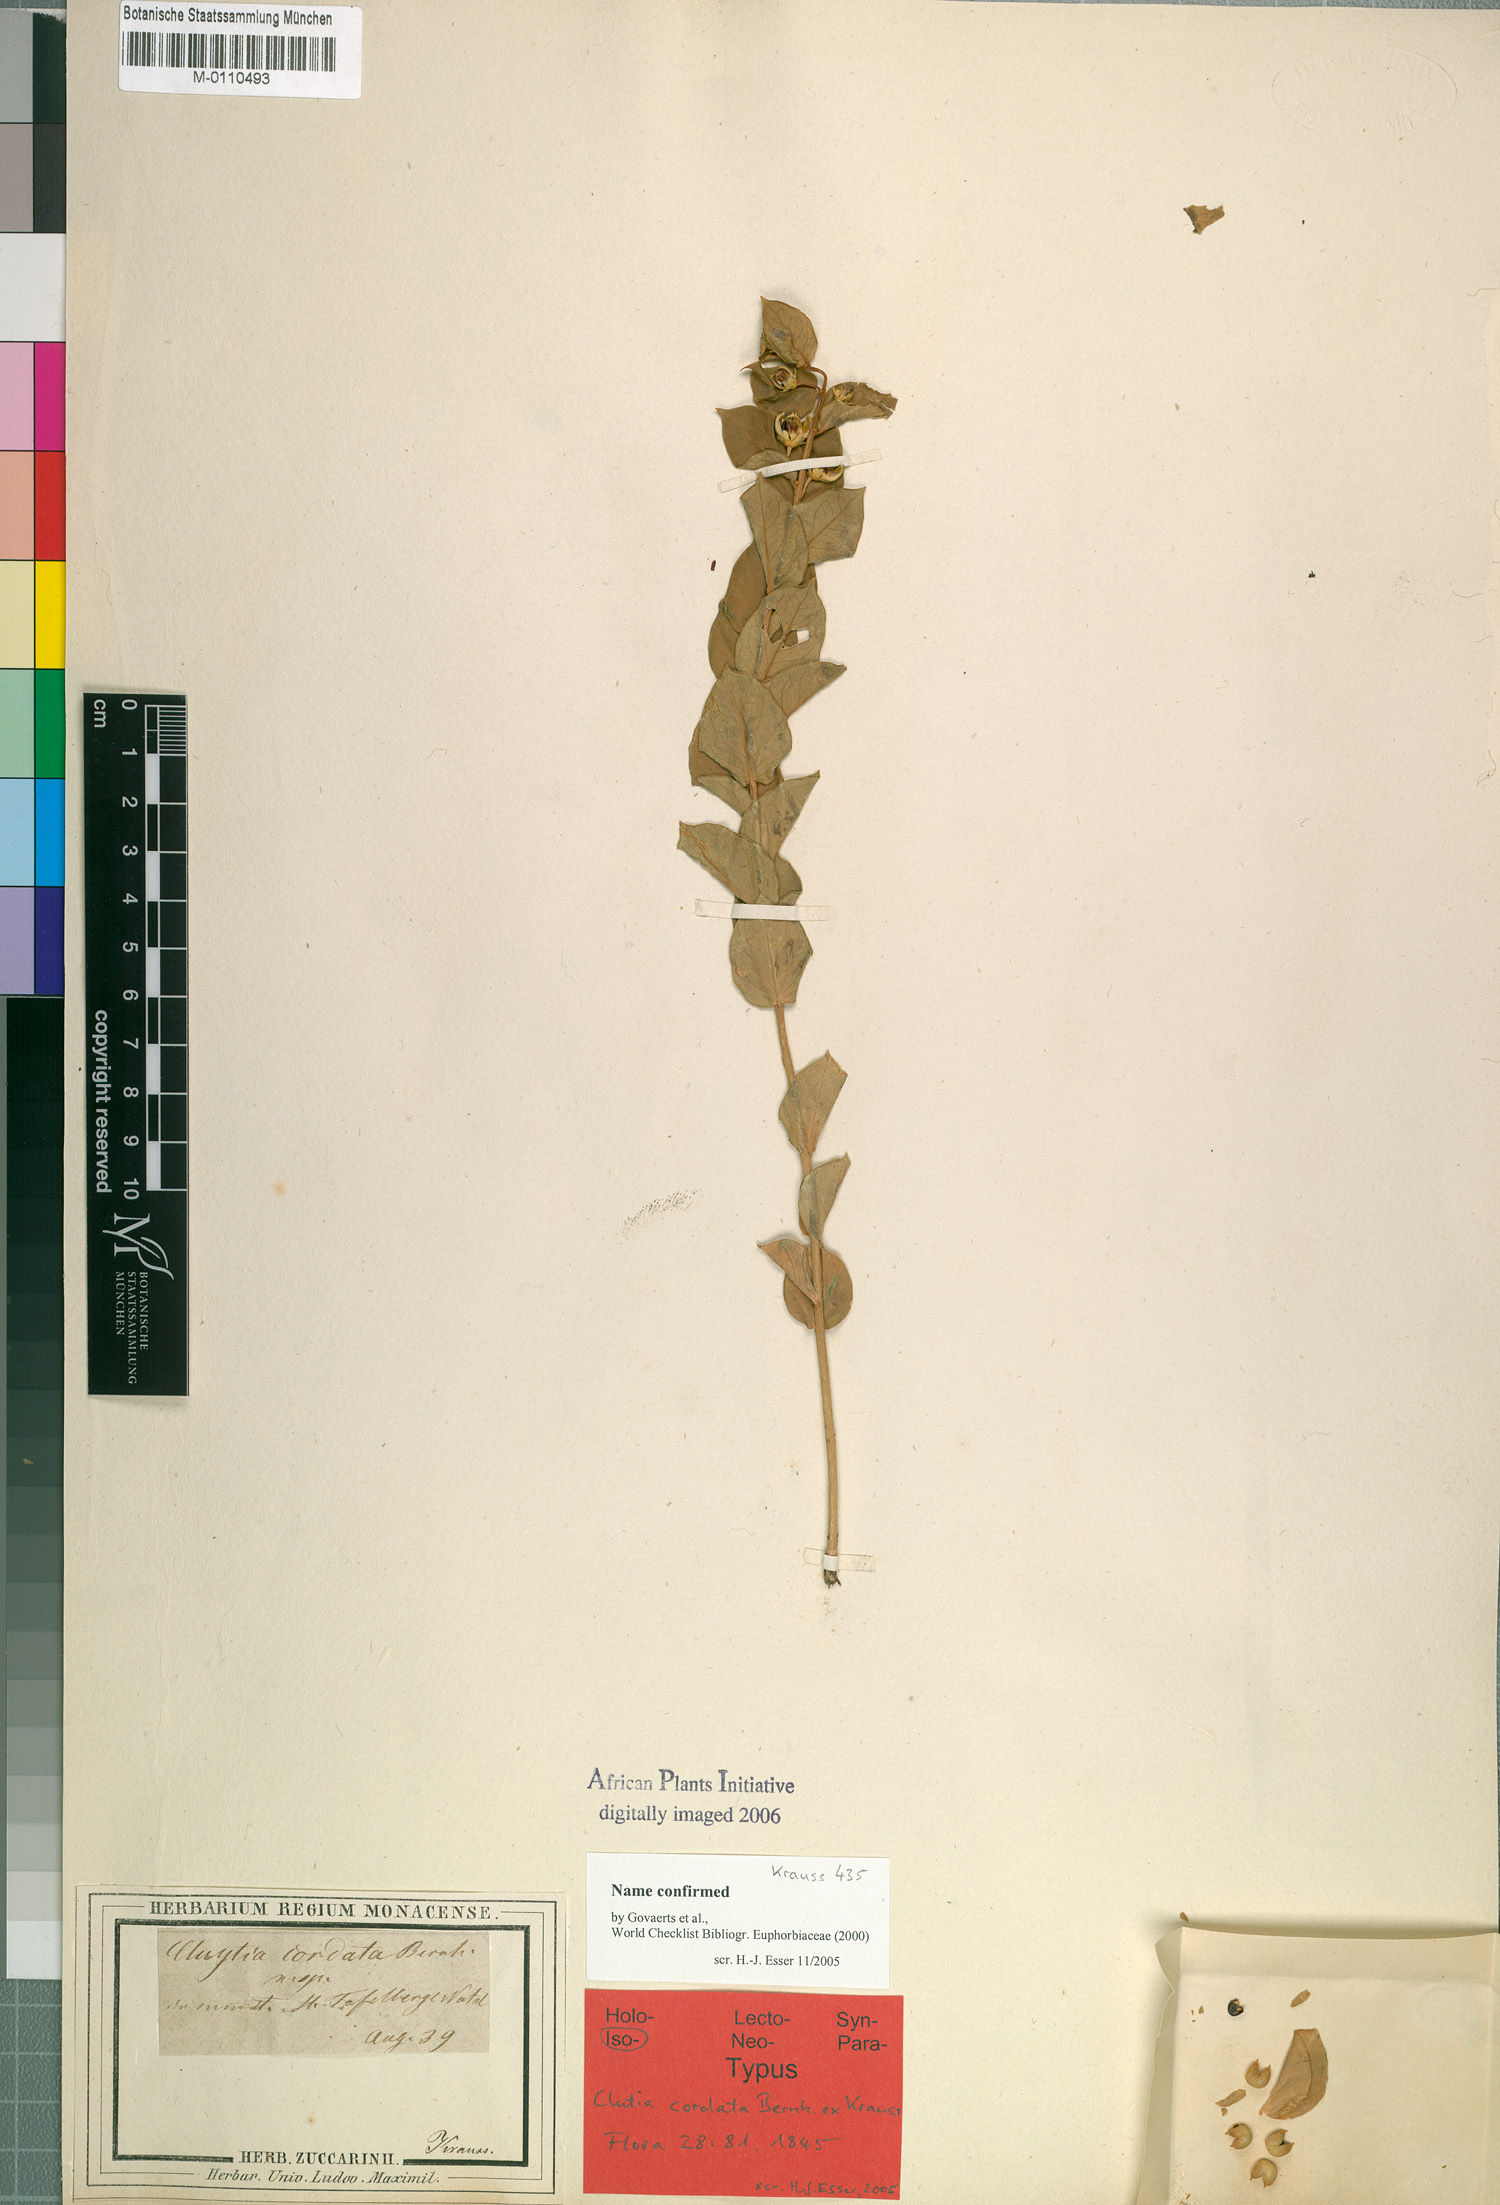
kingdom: Plantae
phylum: Tracheophyta
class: Magnoliopsida
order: Malpighiales
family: Peraceae
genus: Clutia
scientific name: Clutia cordata
